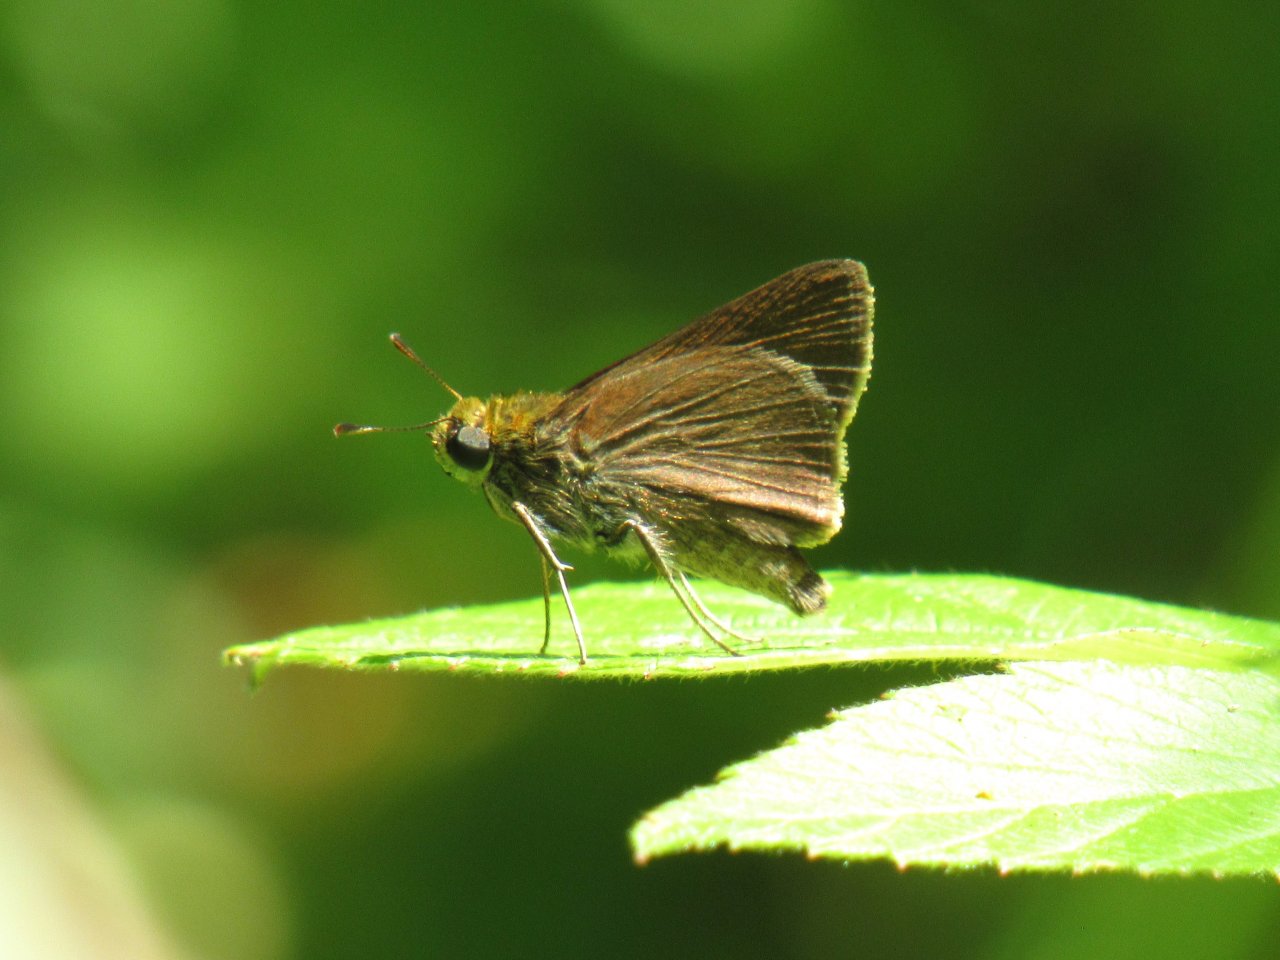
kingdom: Animalia
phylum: Arthropoda
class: Insecta
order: Lepidoptera
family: Hesperiidae
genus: Euphyes
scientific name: Euphyes vestris
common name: Dun Skipper
